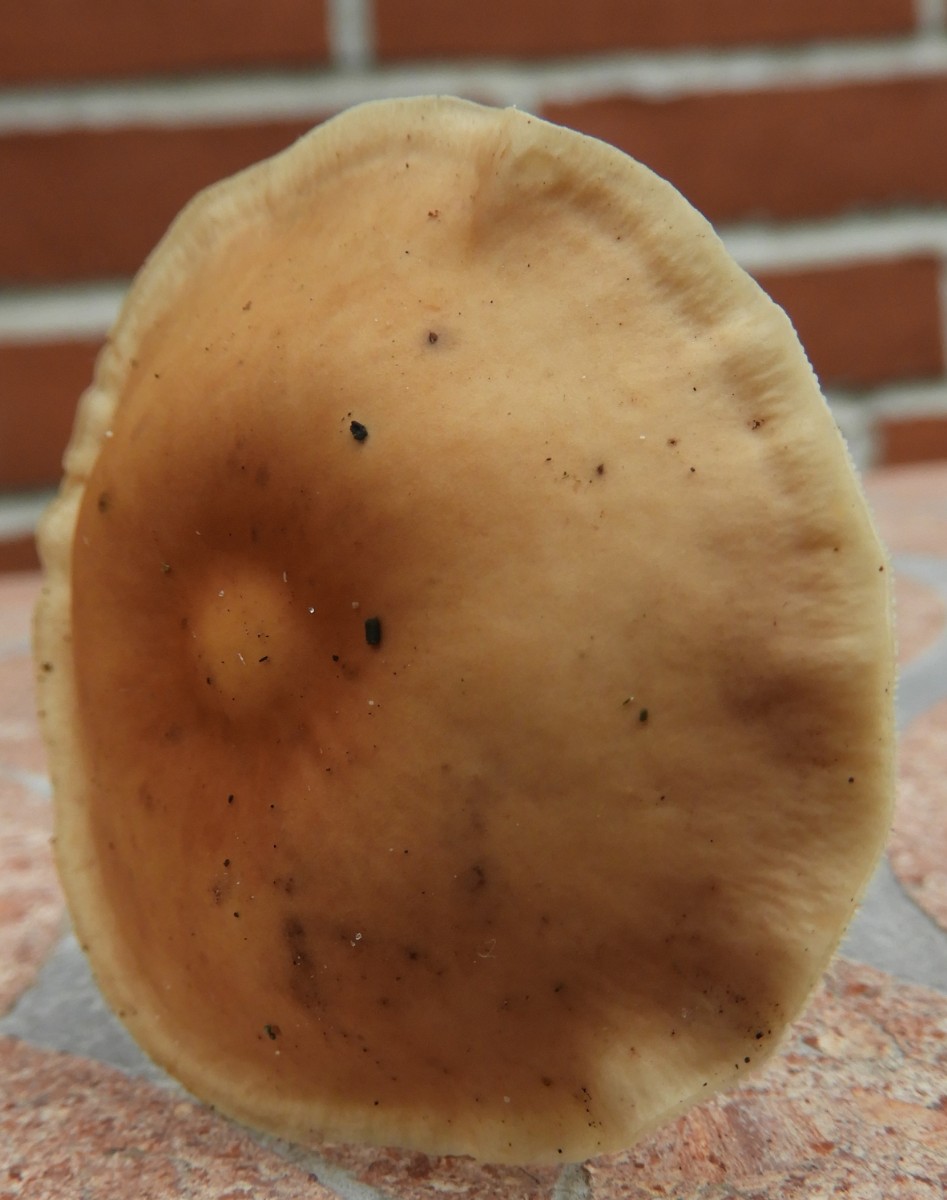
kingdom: Fungi
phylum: Basidiomycota
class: Agaricomycetes
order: Agaricales
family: Omphalotaceae
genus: Gymnopus
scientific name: Gymnopus dryophilus
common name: løv-fladhat
